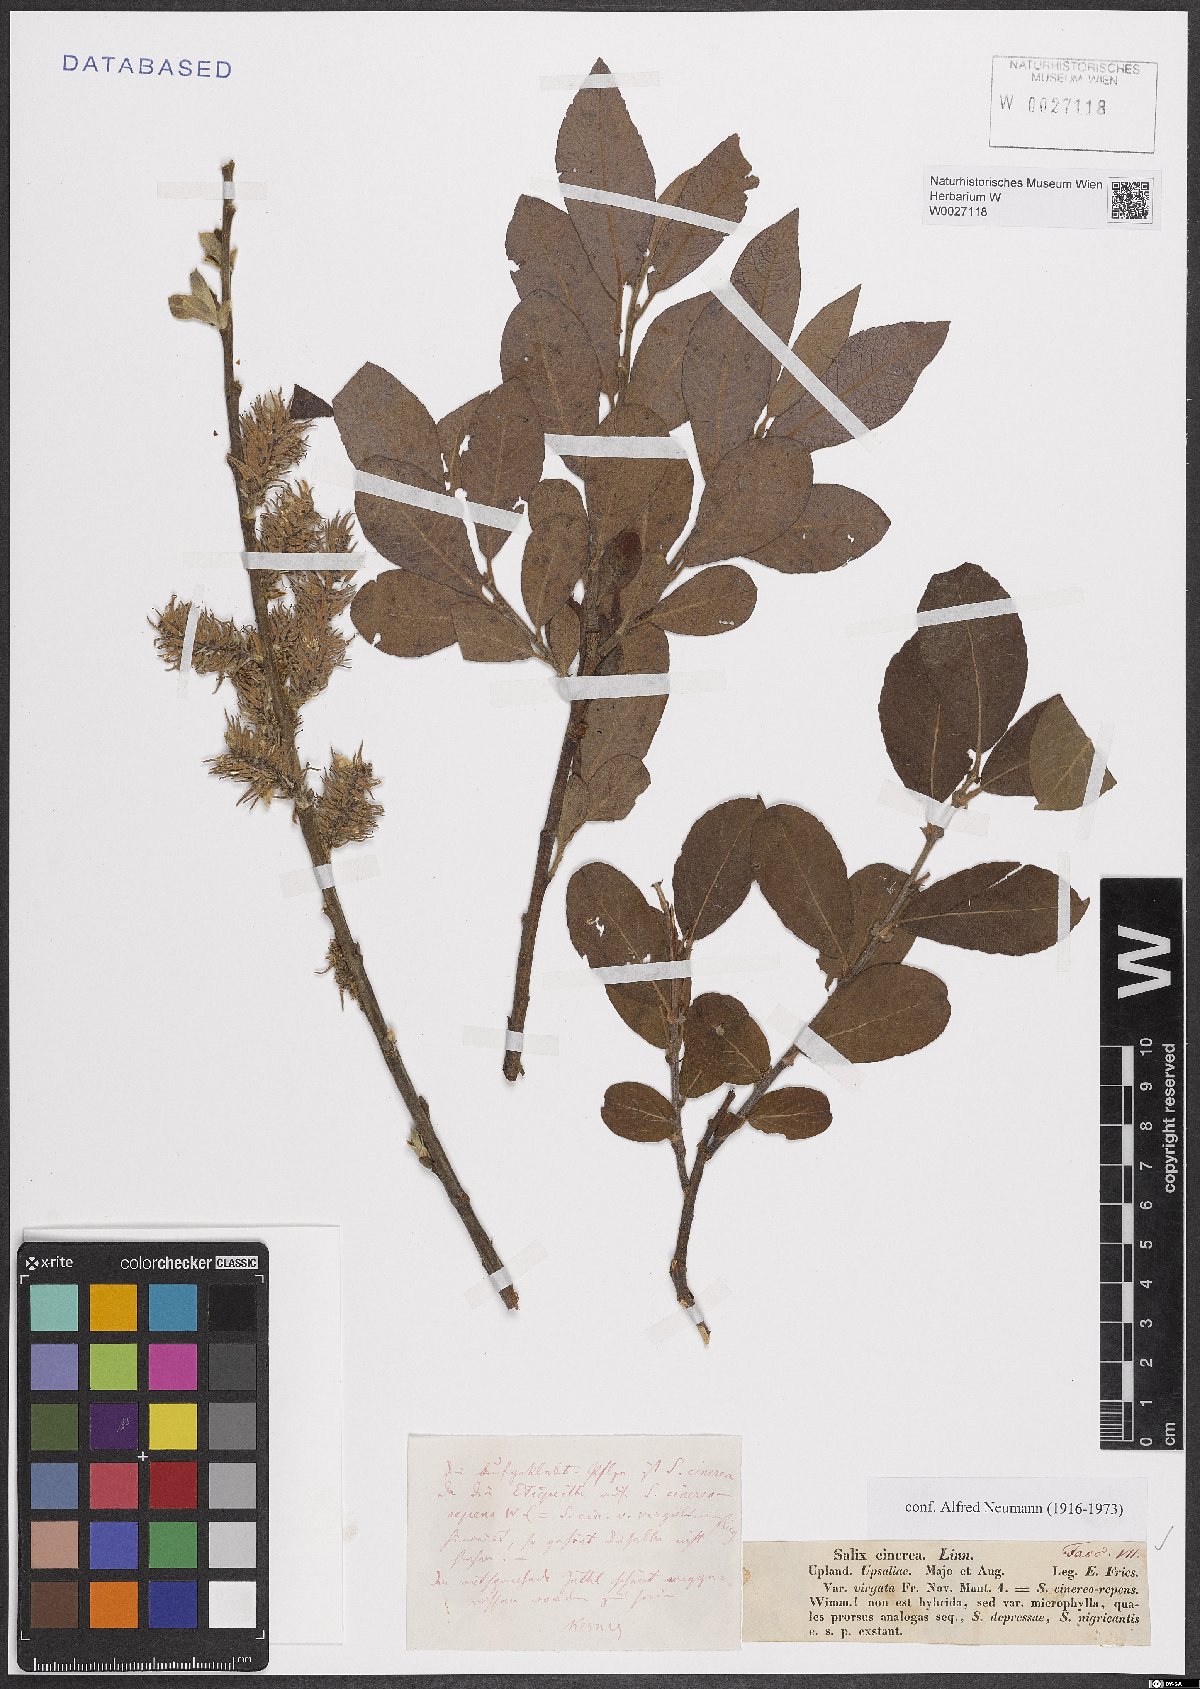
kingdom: Plantae
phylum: Tracheophyta
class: Magnoliopsida
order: Malpighiales
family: Salicaceae
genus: Salix
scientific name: Salix cinerea
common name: Common sallow
